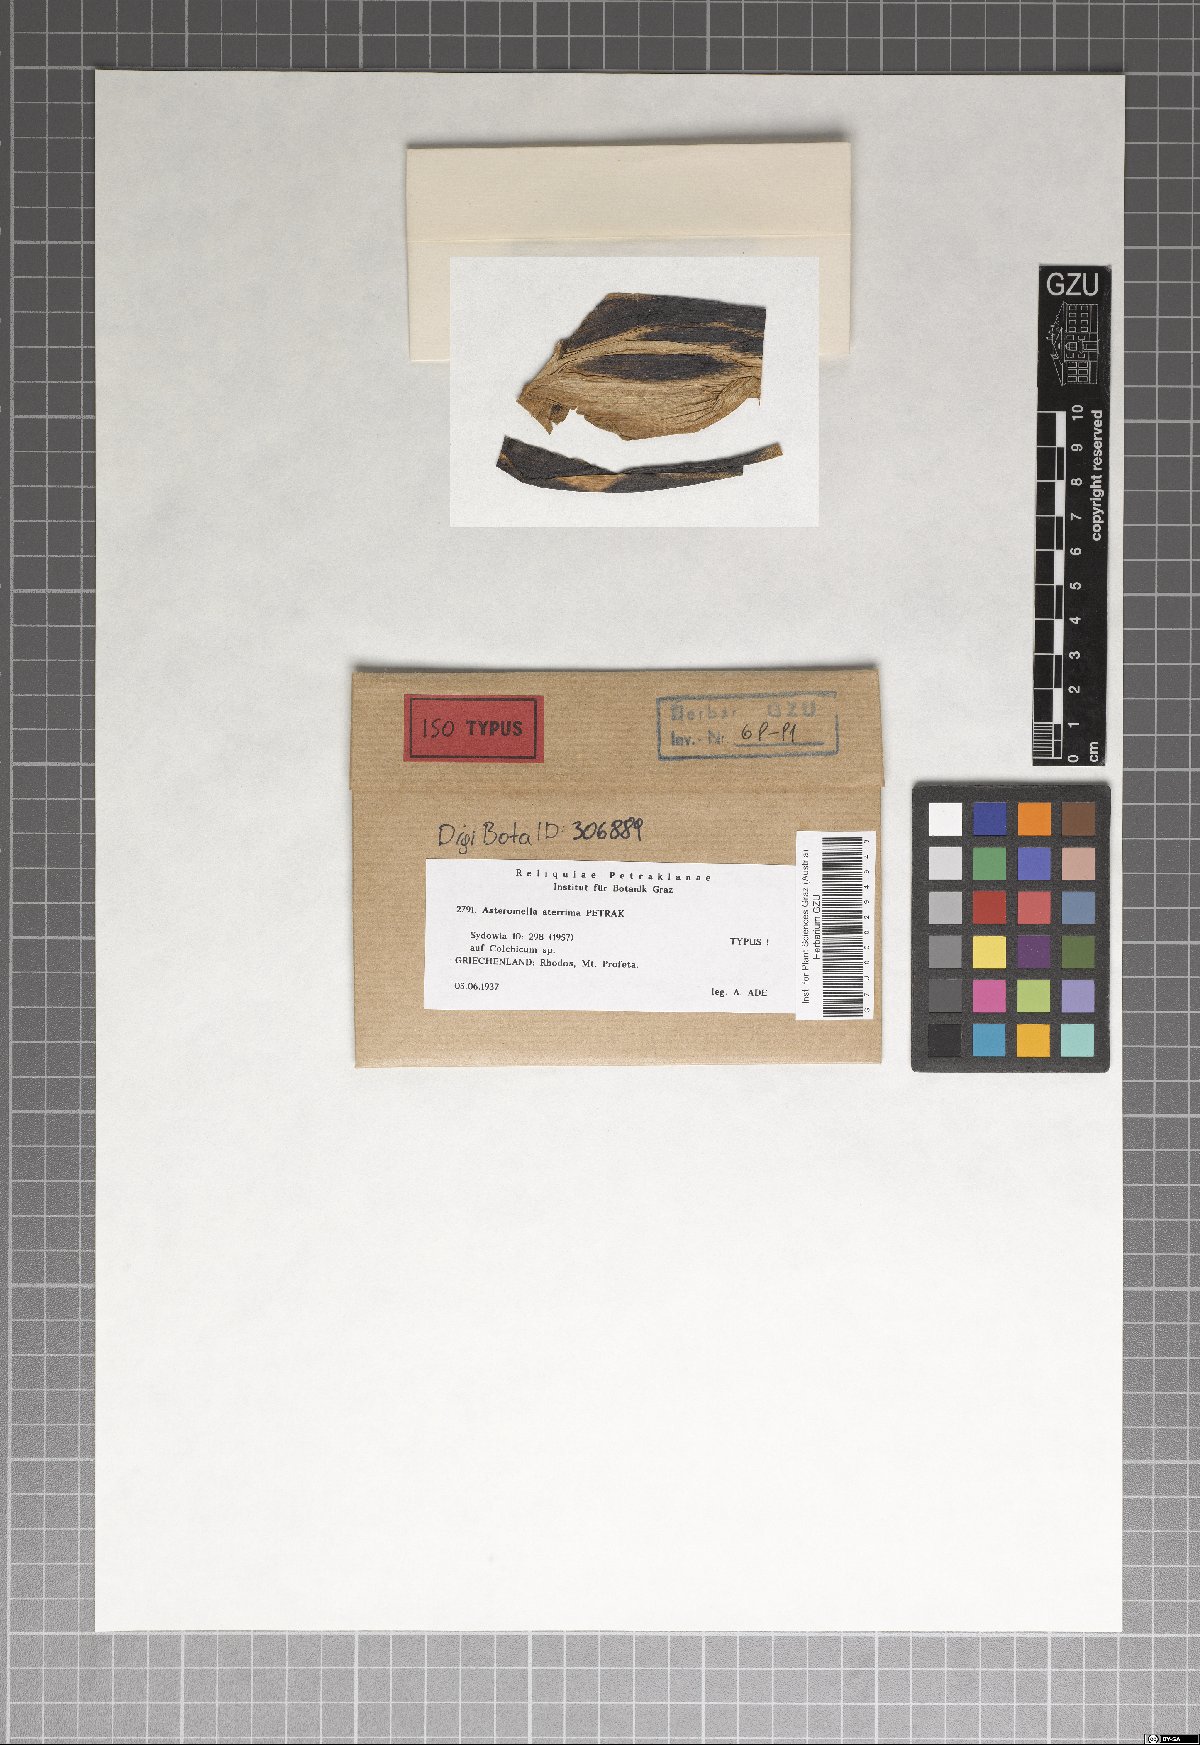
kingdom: Fungi
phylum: Ascomycota
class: Dothideomycetes
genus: Asteromella
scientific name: Asteromella aterrima
